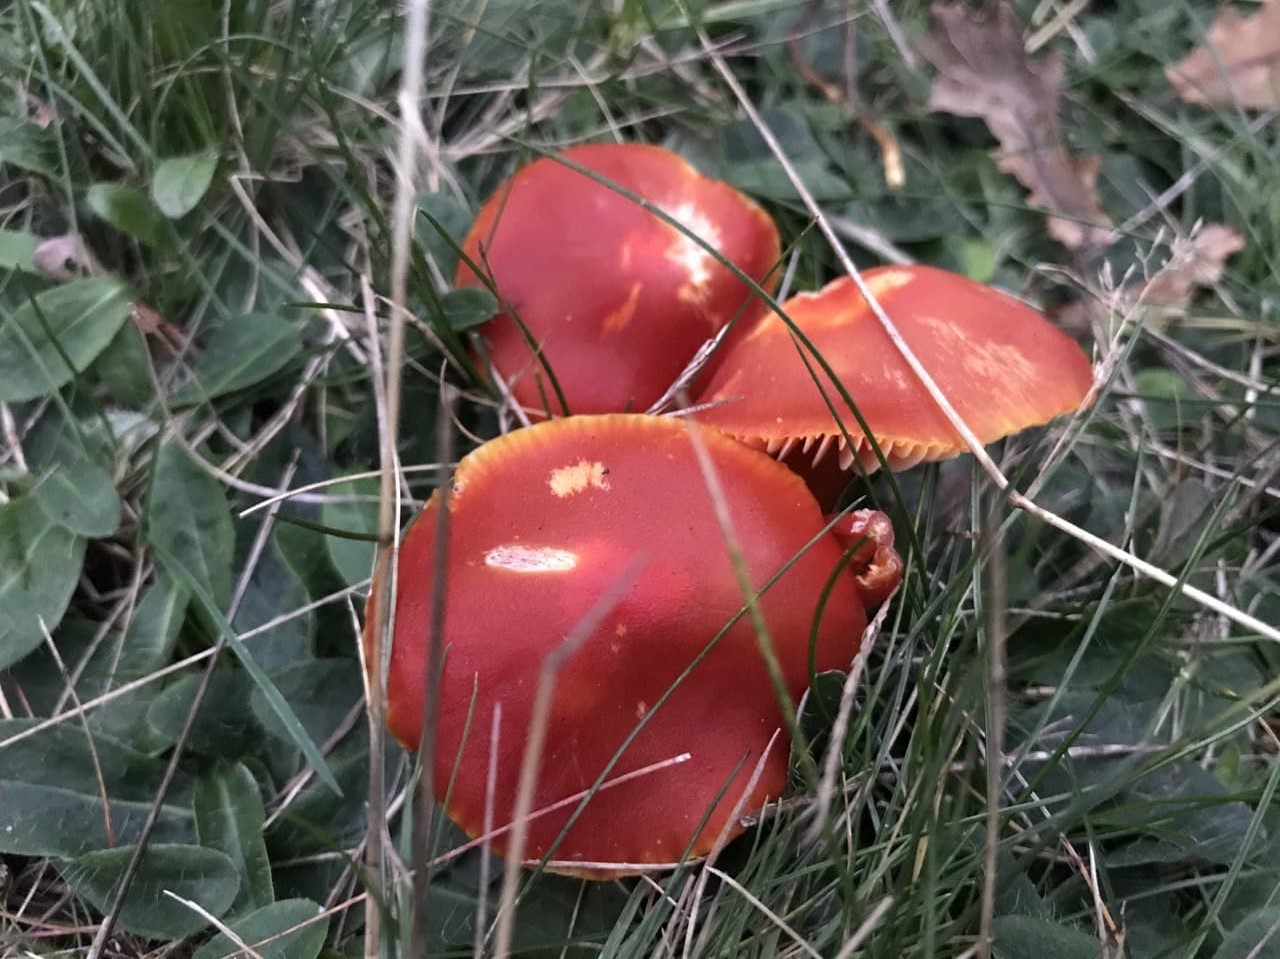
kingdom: Fungi
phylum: Basidiomycota
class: Agaricomycetes
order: Agaricales
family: Hygrophoraceae
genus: Hygrocybe
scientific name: Hygrocybe punicea
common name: skarlagen-vokshat
